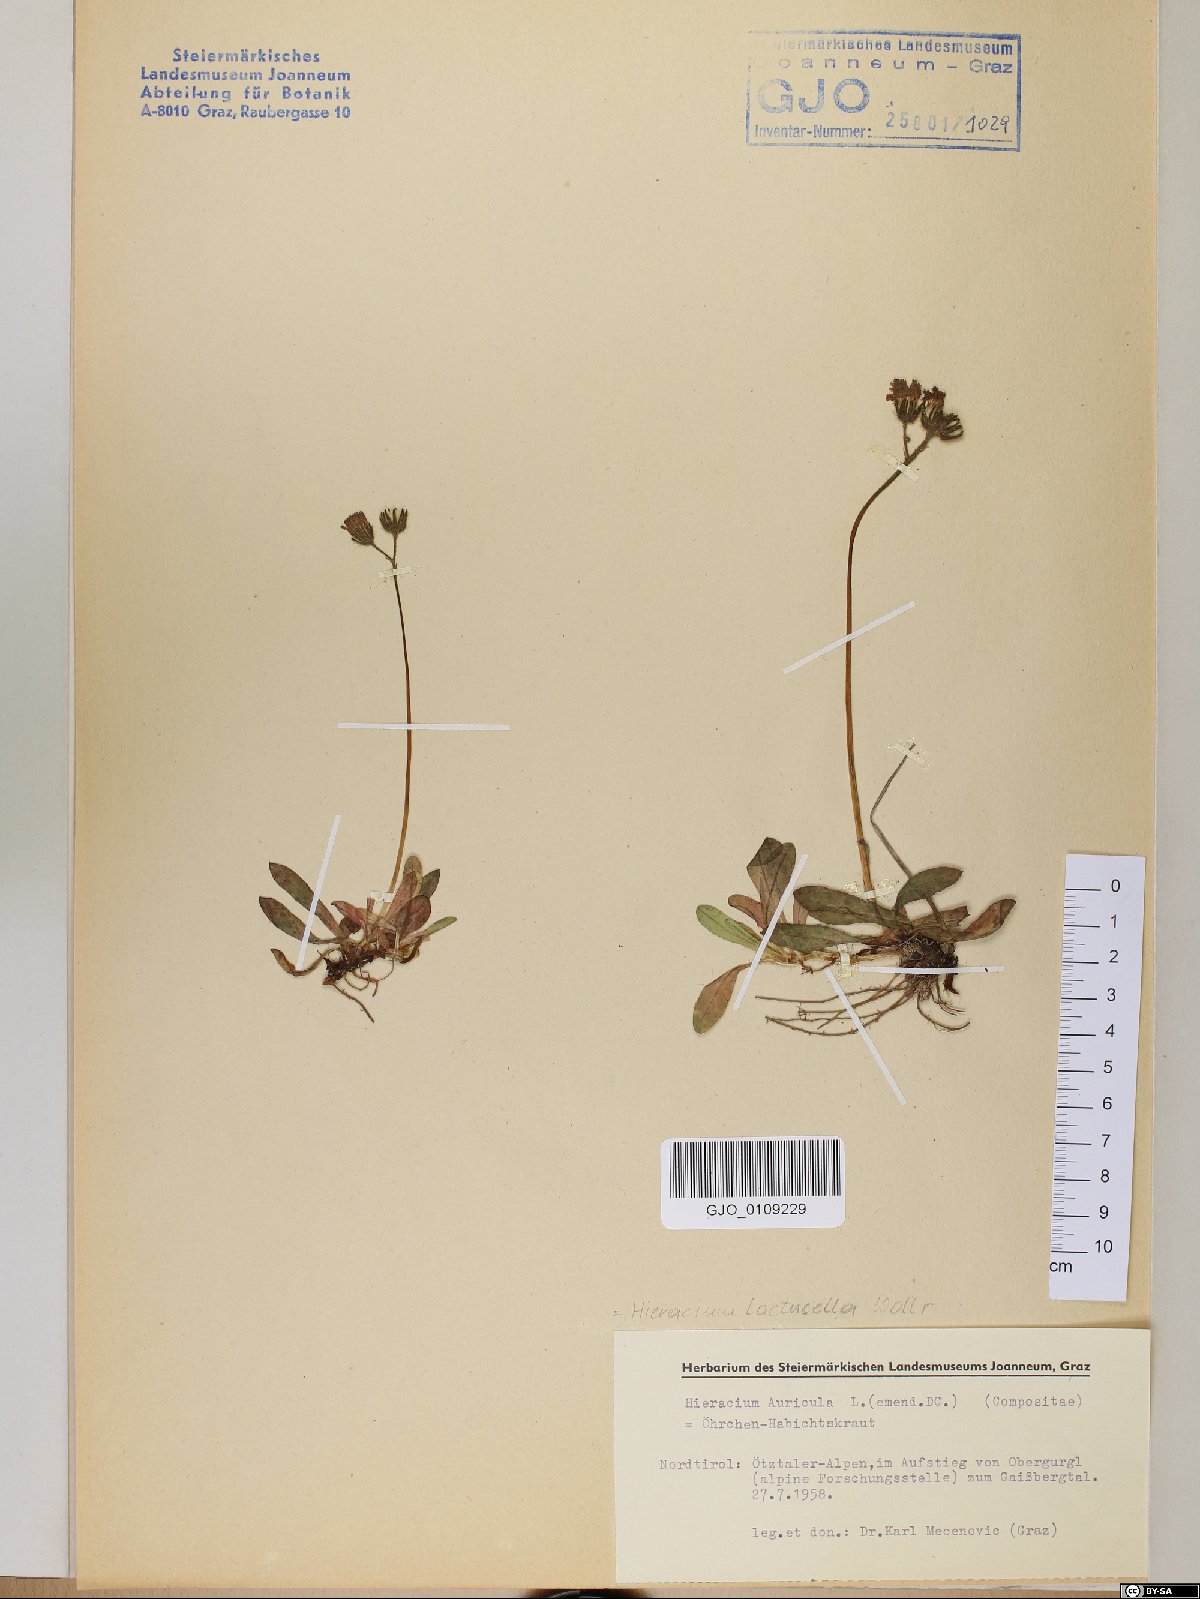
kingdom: Plantae
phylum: Tracheophyta
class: Magnoliopsida
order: Asterales
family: Asteraceae
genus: Hieracium
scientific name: Hieracium auricula
